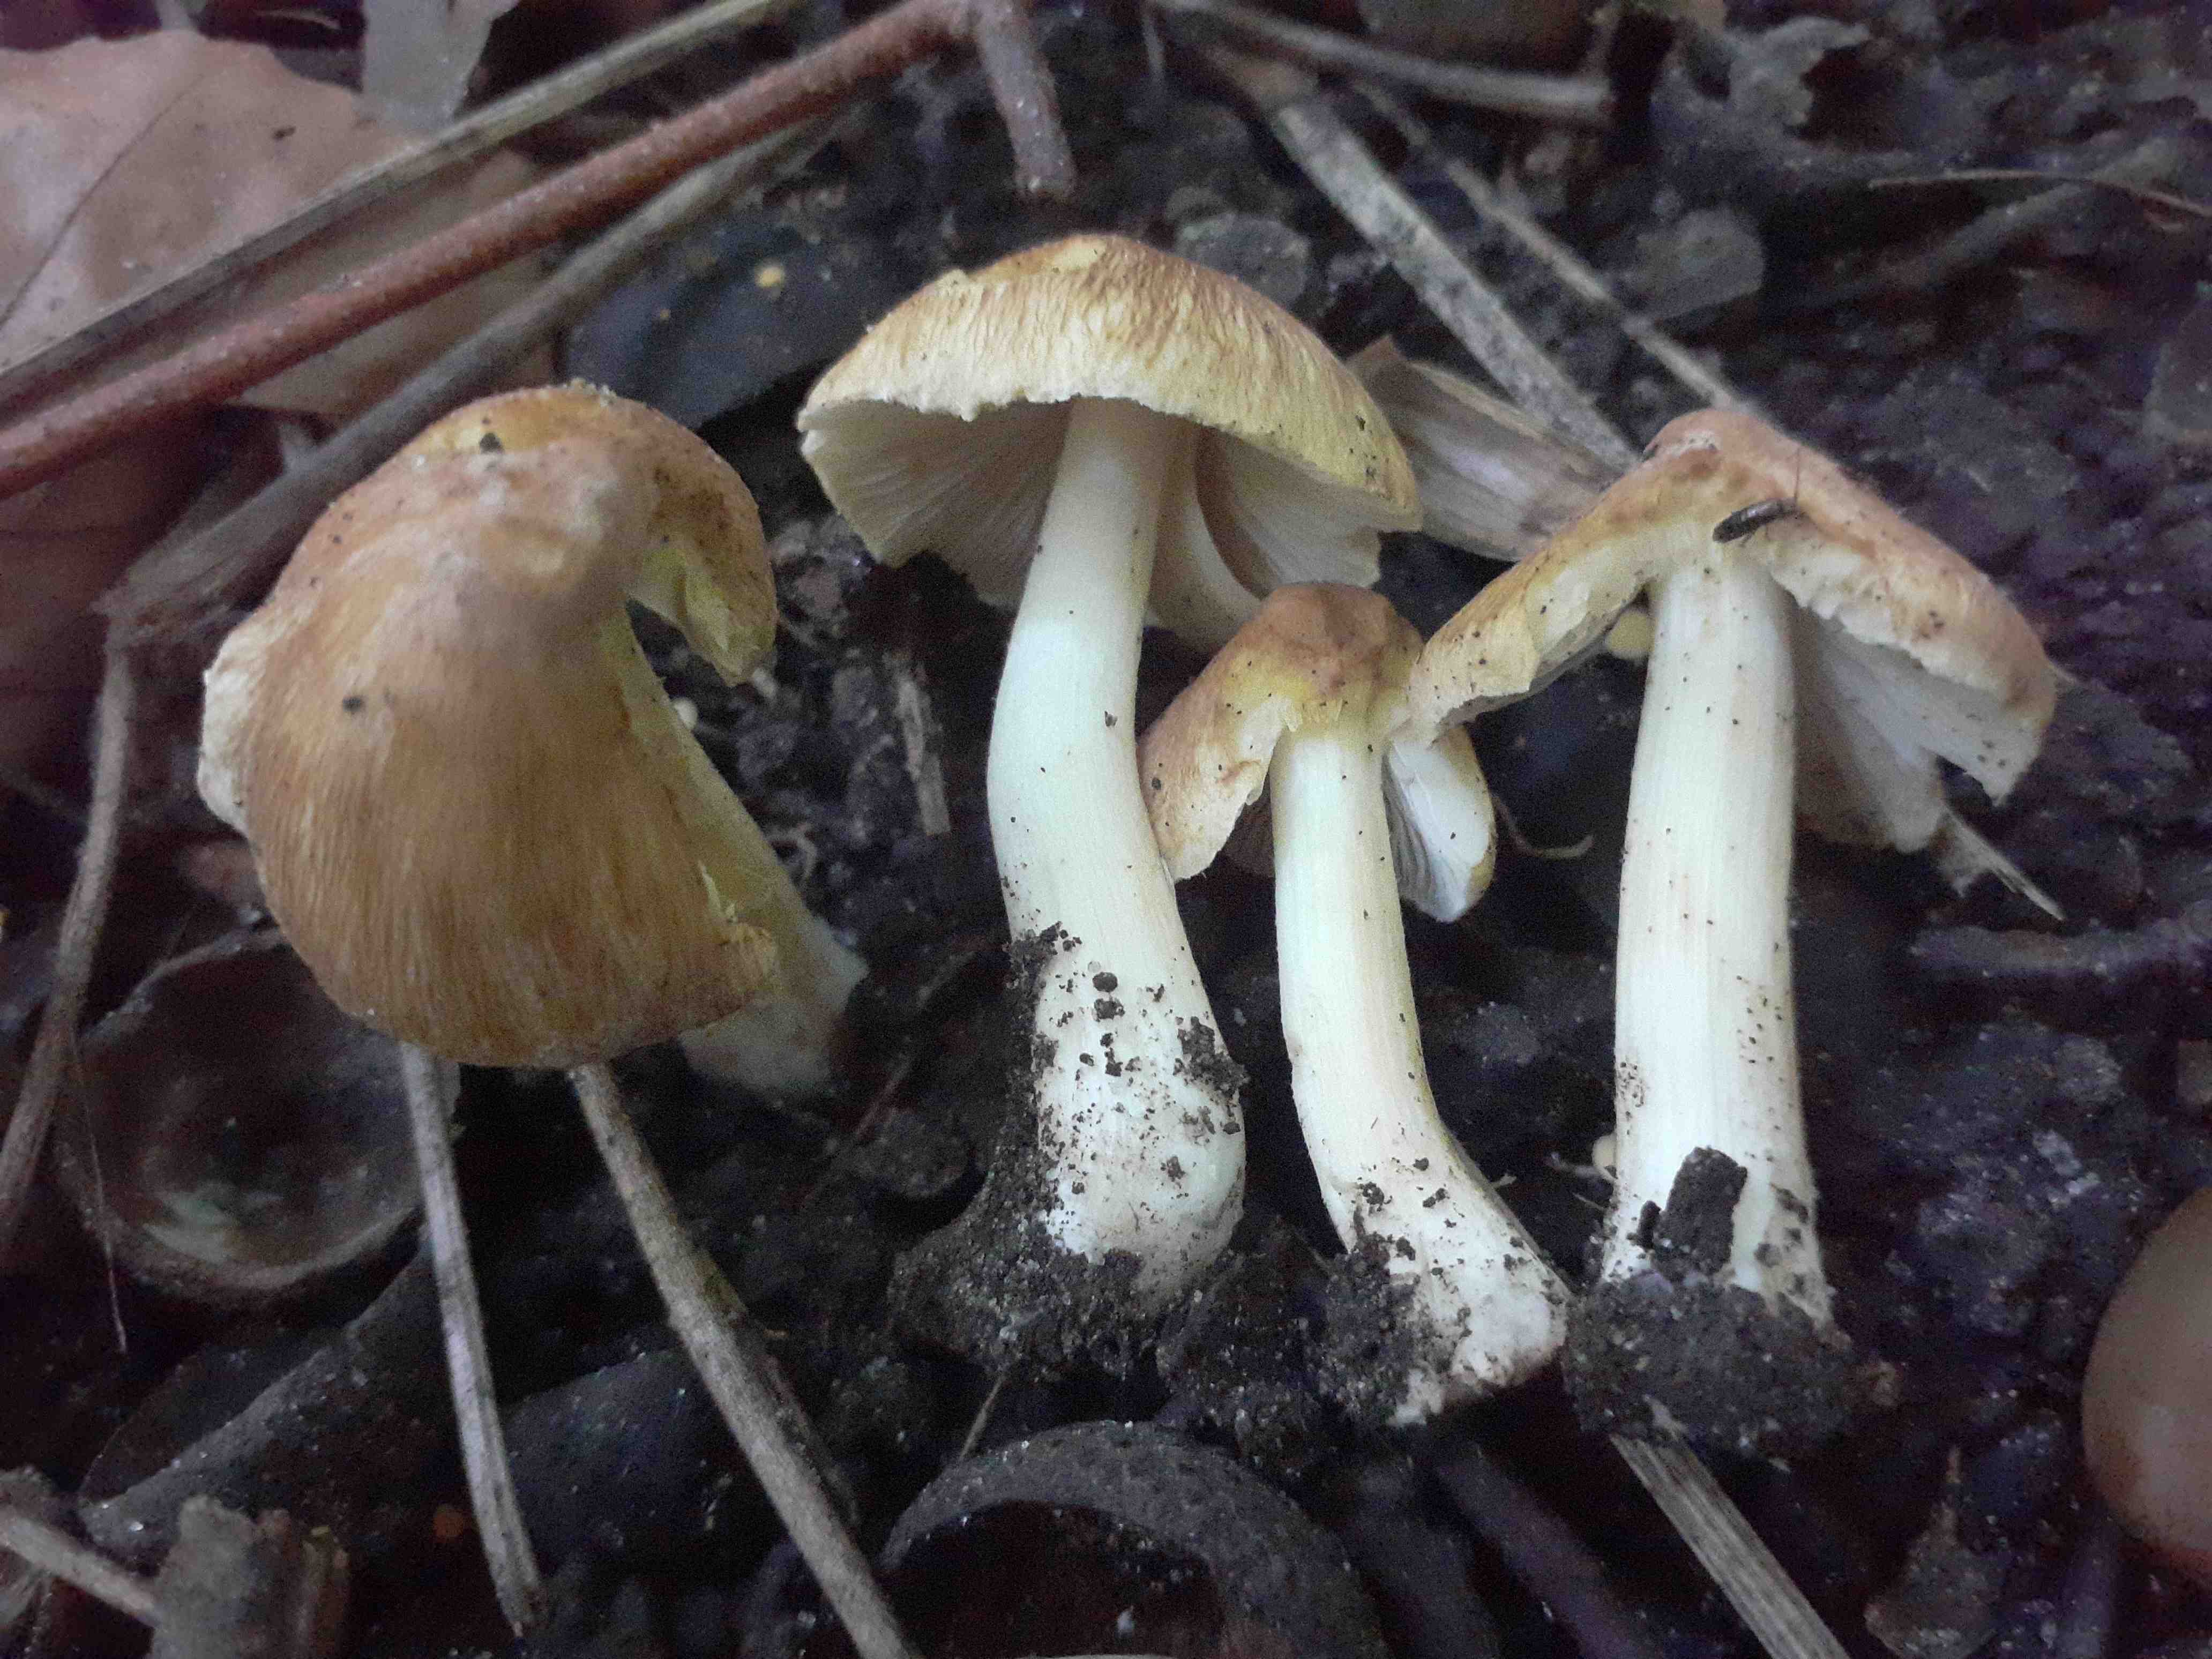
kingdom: Fungi
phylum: Basidiomycota
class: Agaricomycetes
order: Agaricales
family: Inocybaceae
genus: Inosperma
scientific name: Inosperma fulvum
